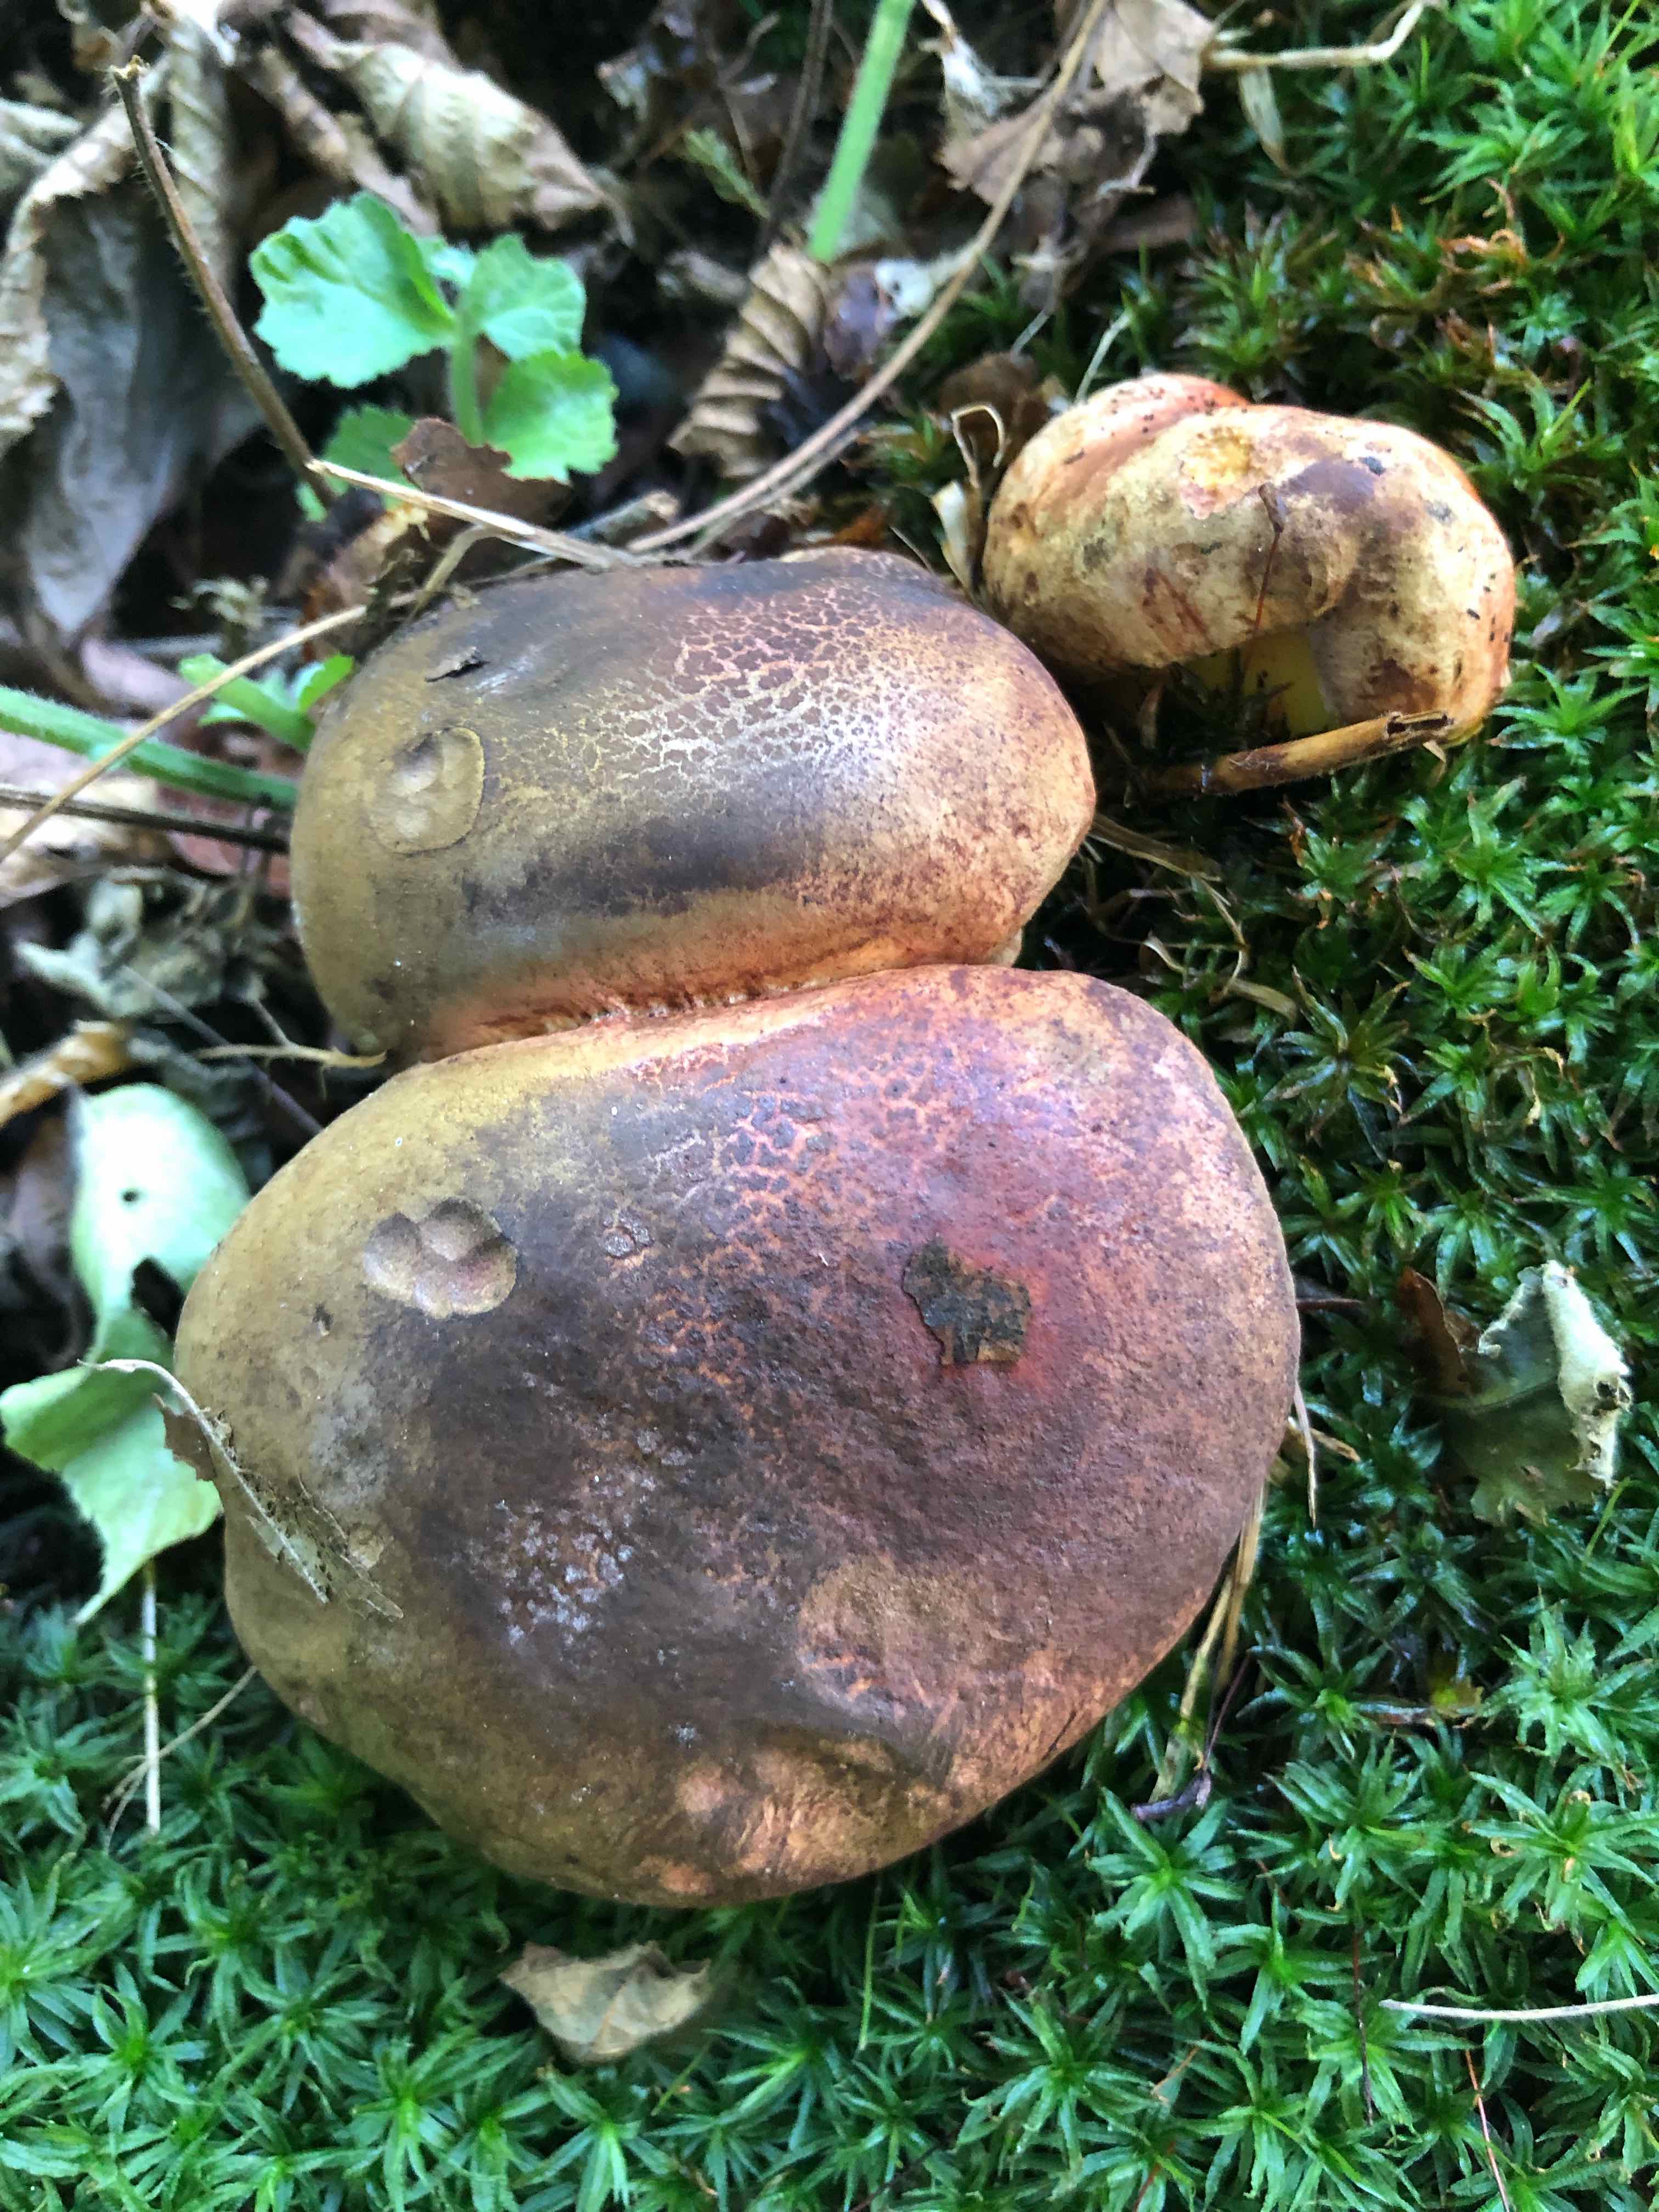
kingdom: Fungi
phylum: Basidiomycota
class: Agaricomycetes
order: Boletales
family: Boletaceae
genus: Cyanoboletus
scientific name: Cyanoboletus pulverulentus
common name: sortblånende rørhat
